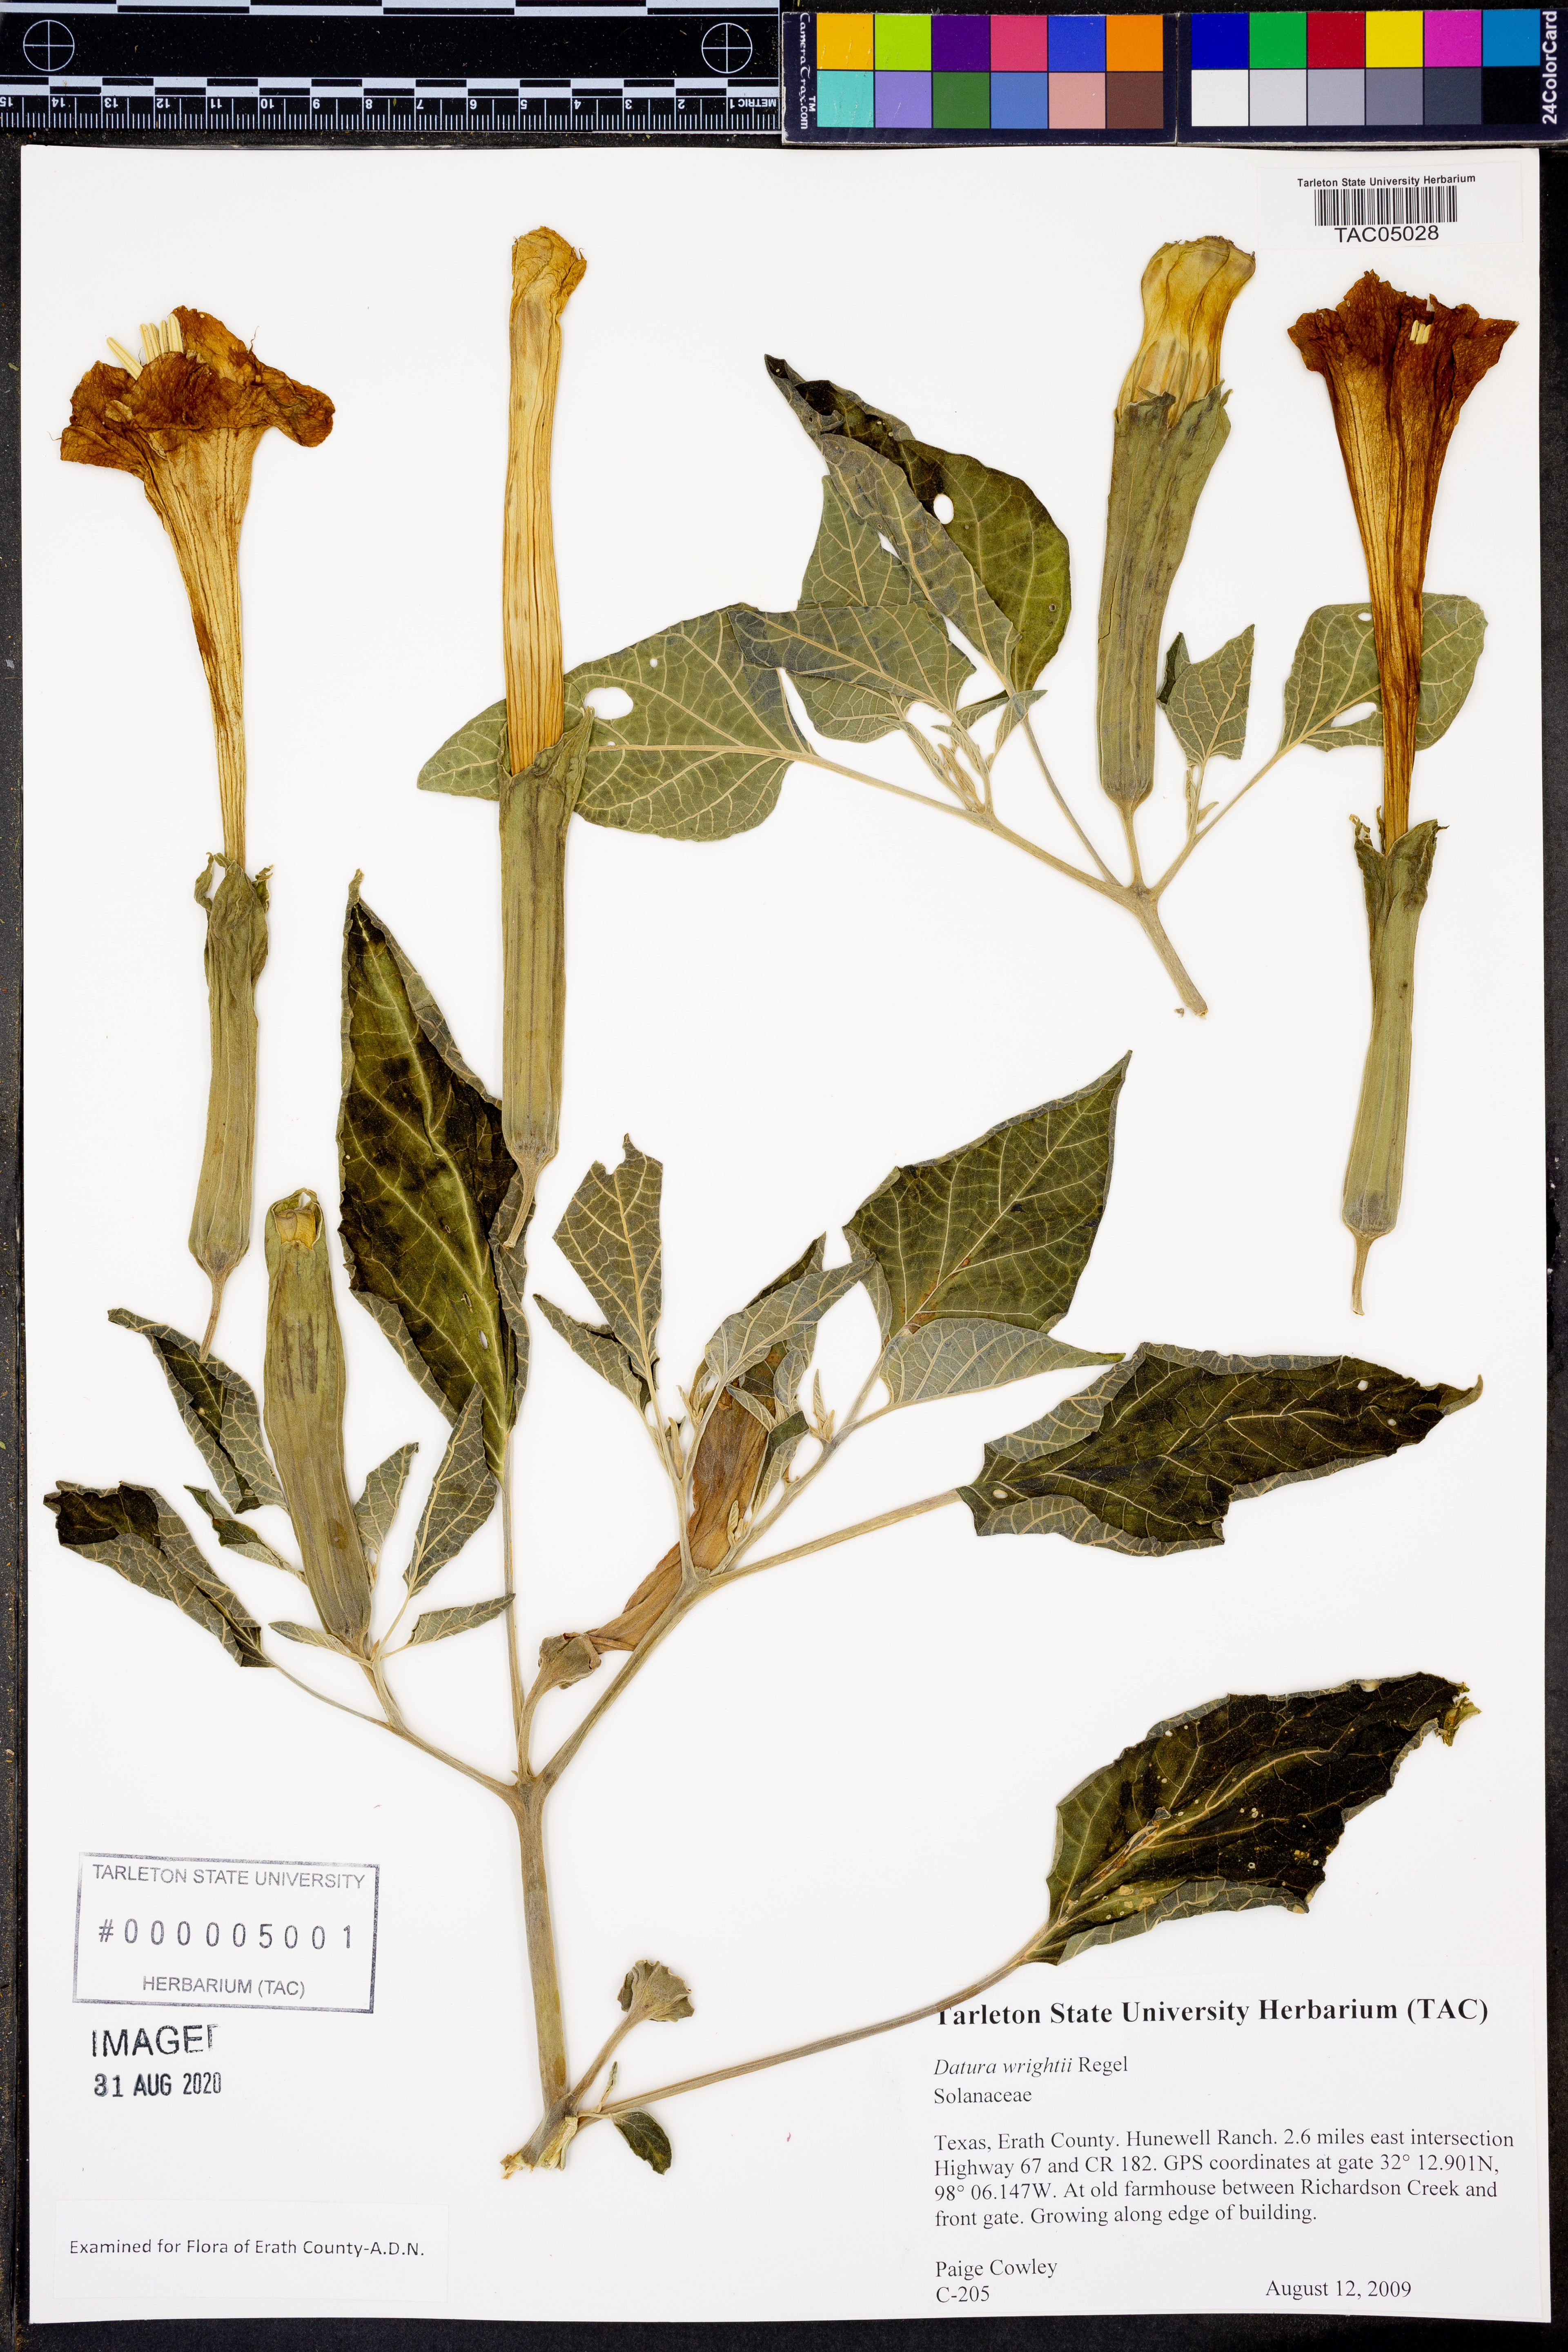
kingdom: Plantae
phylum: Tracheophyta
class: Magnoliopsida
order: Solanales
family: Solanaceae
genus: Datura
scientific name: Datura wrightii
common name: Sacred thorn-apple
